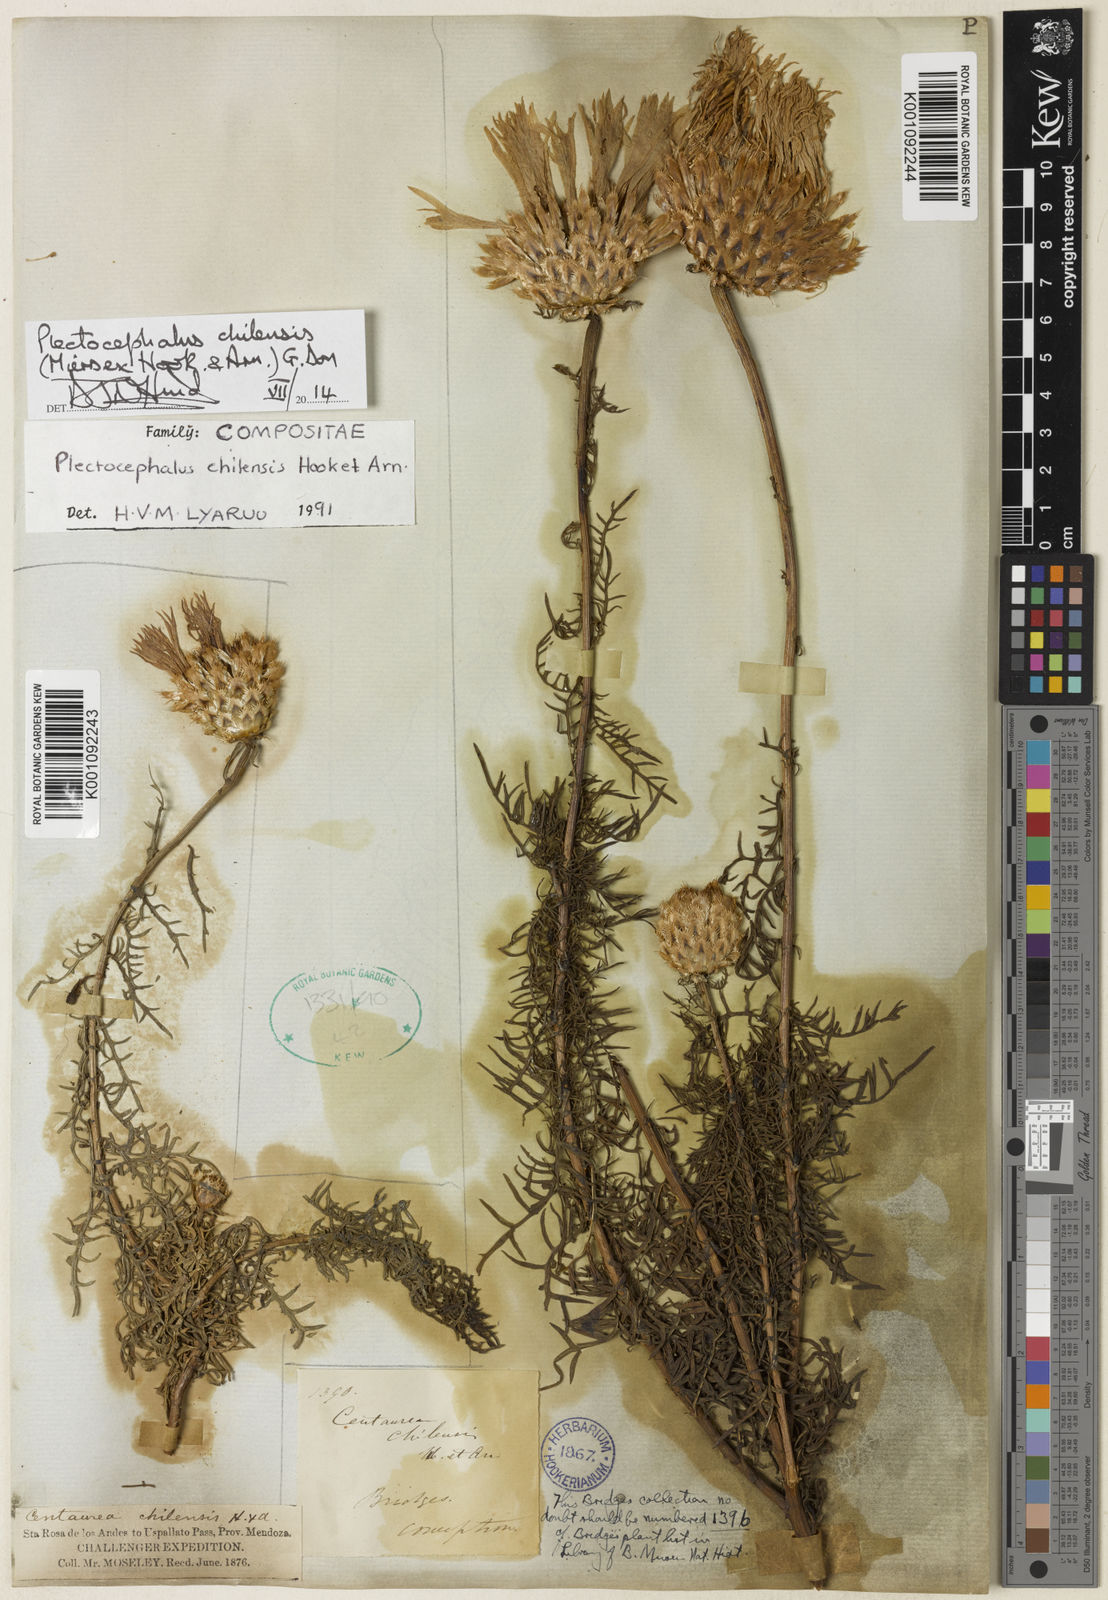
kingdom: Plantae
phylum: Tracheophyta
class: Magnoliopsida
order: Asterales
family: Asteraceae
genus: Plectocephalus
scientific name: Plectocephalus chilensis
